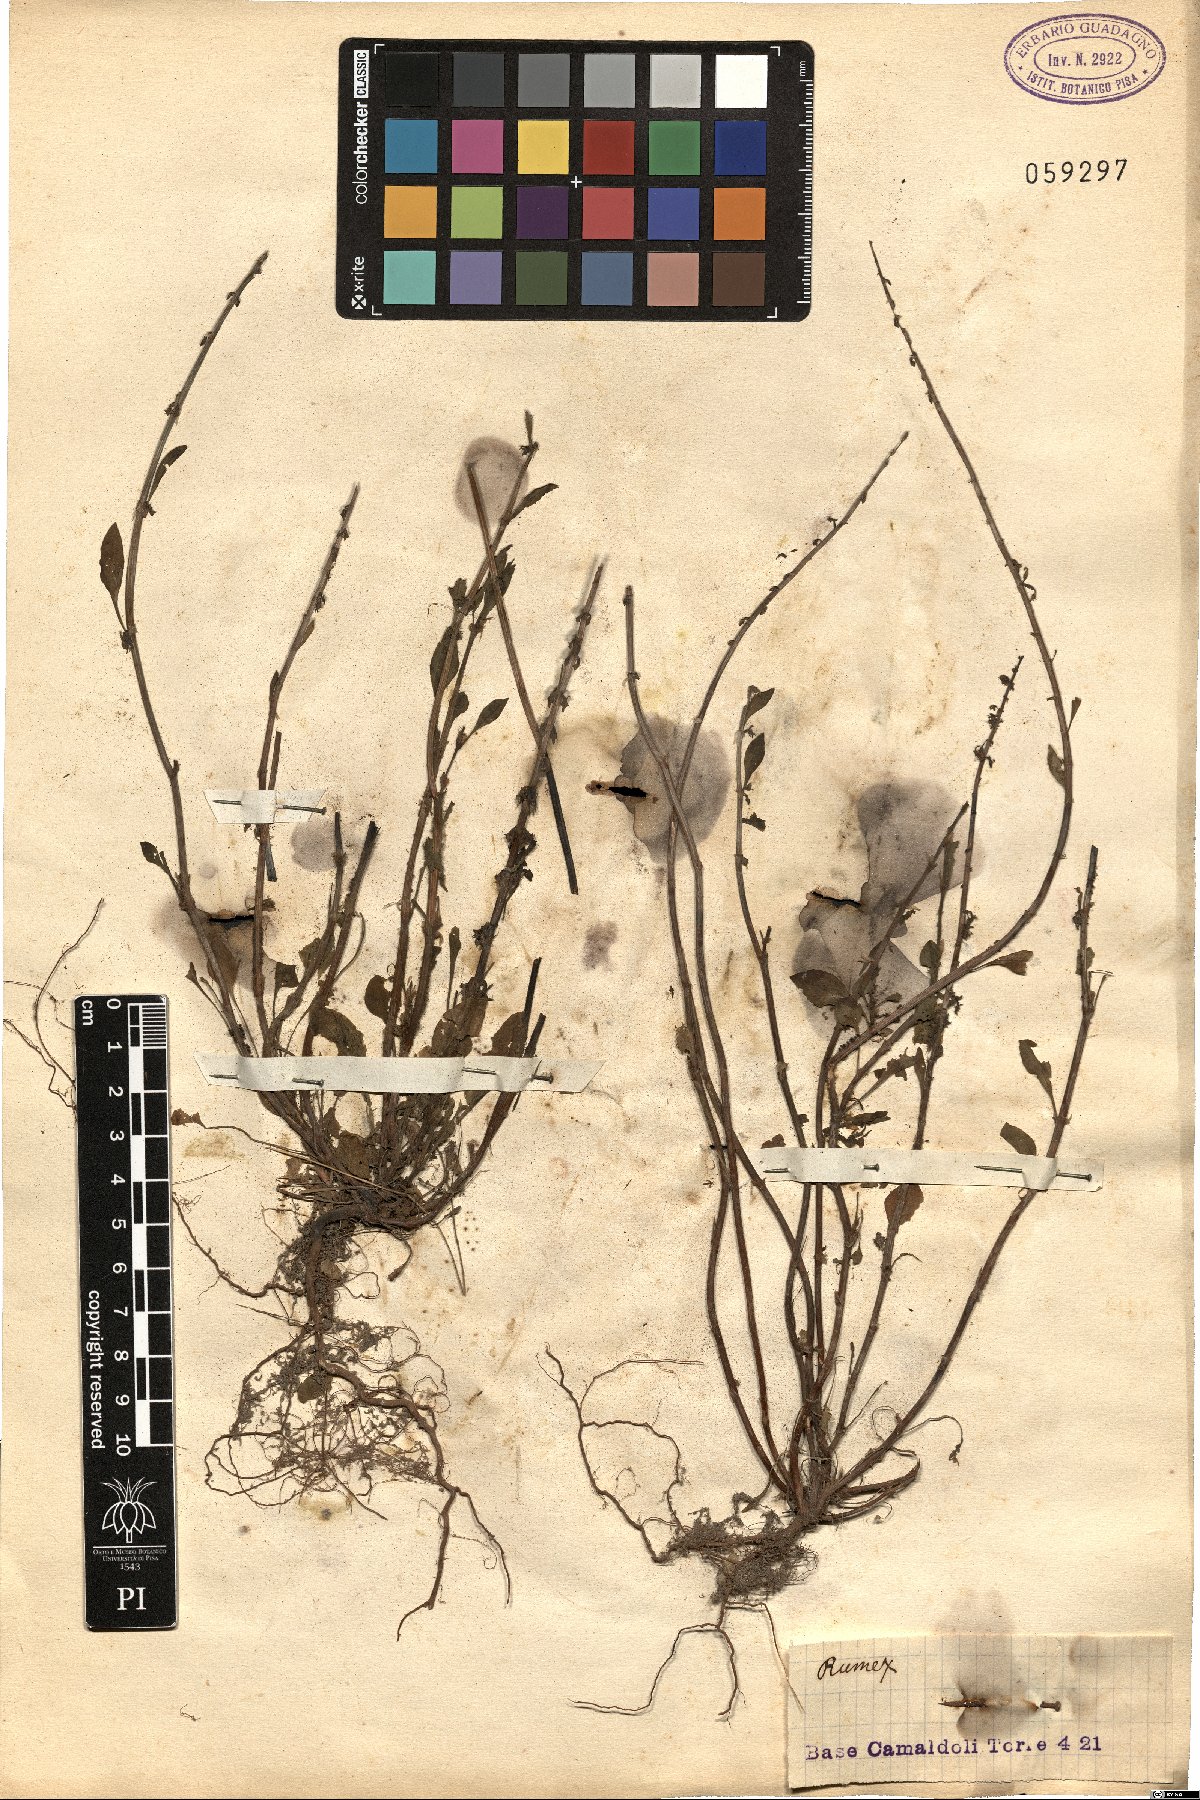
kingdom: Plantae
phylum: Tracheophyta
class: Magnoliopsida
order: Caryophyllales
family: Polygonaceae
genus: Rumex
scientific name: Rumex
